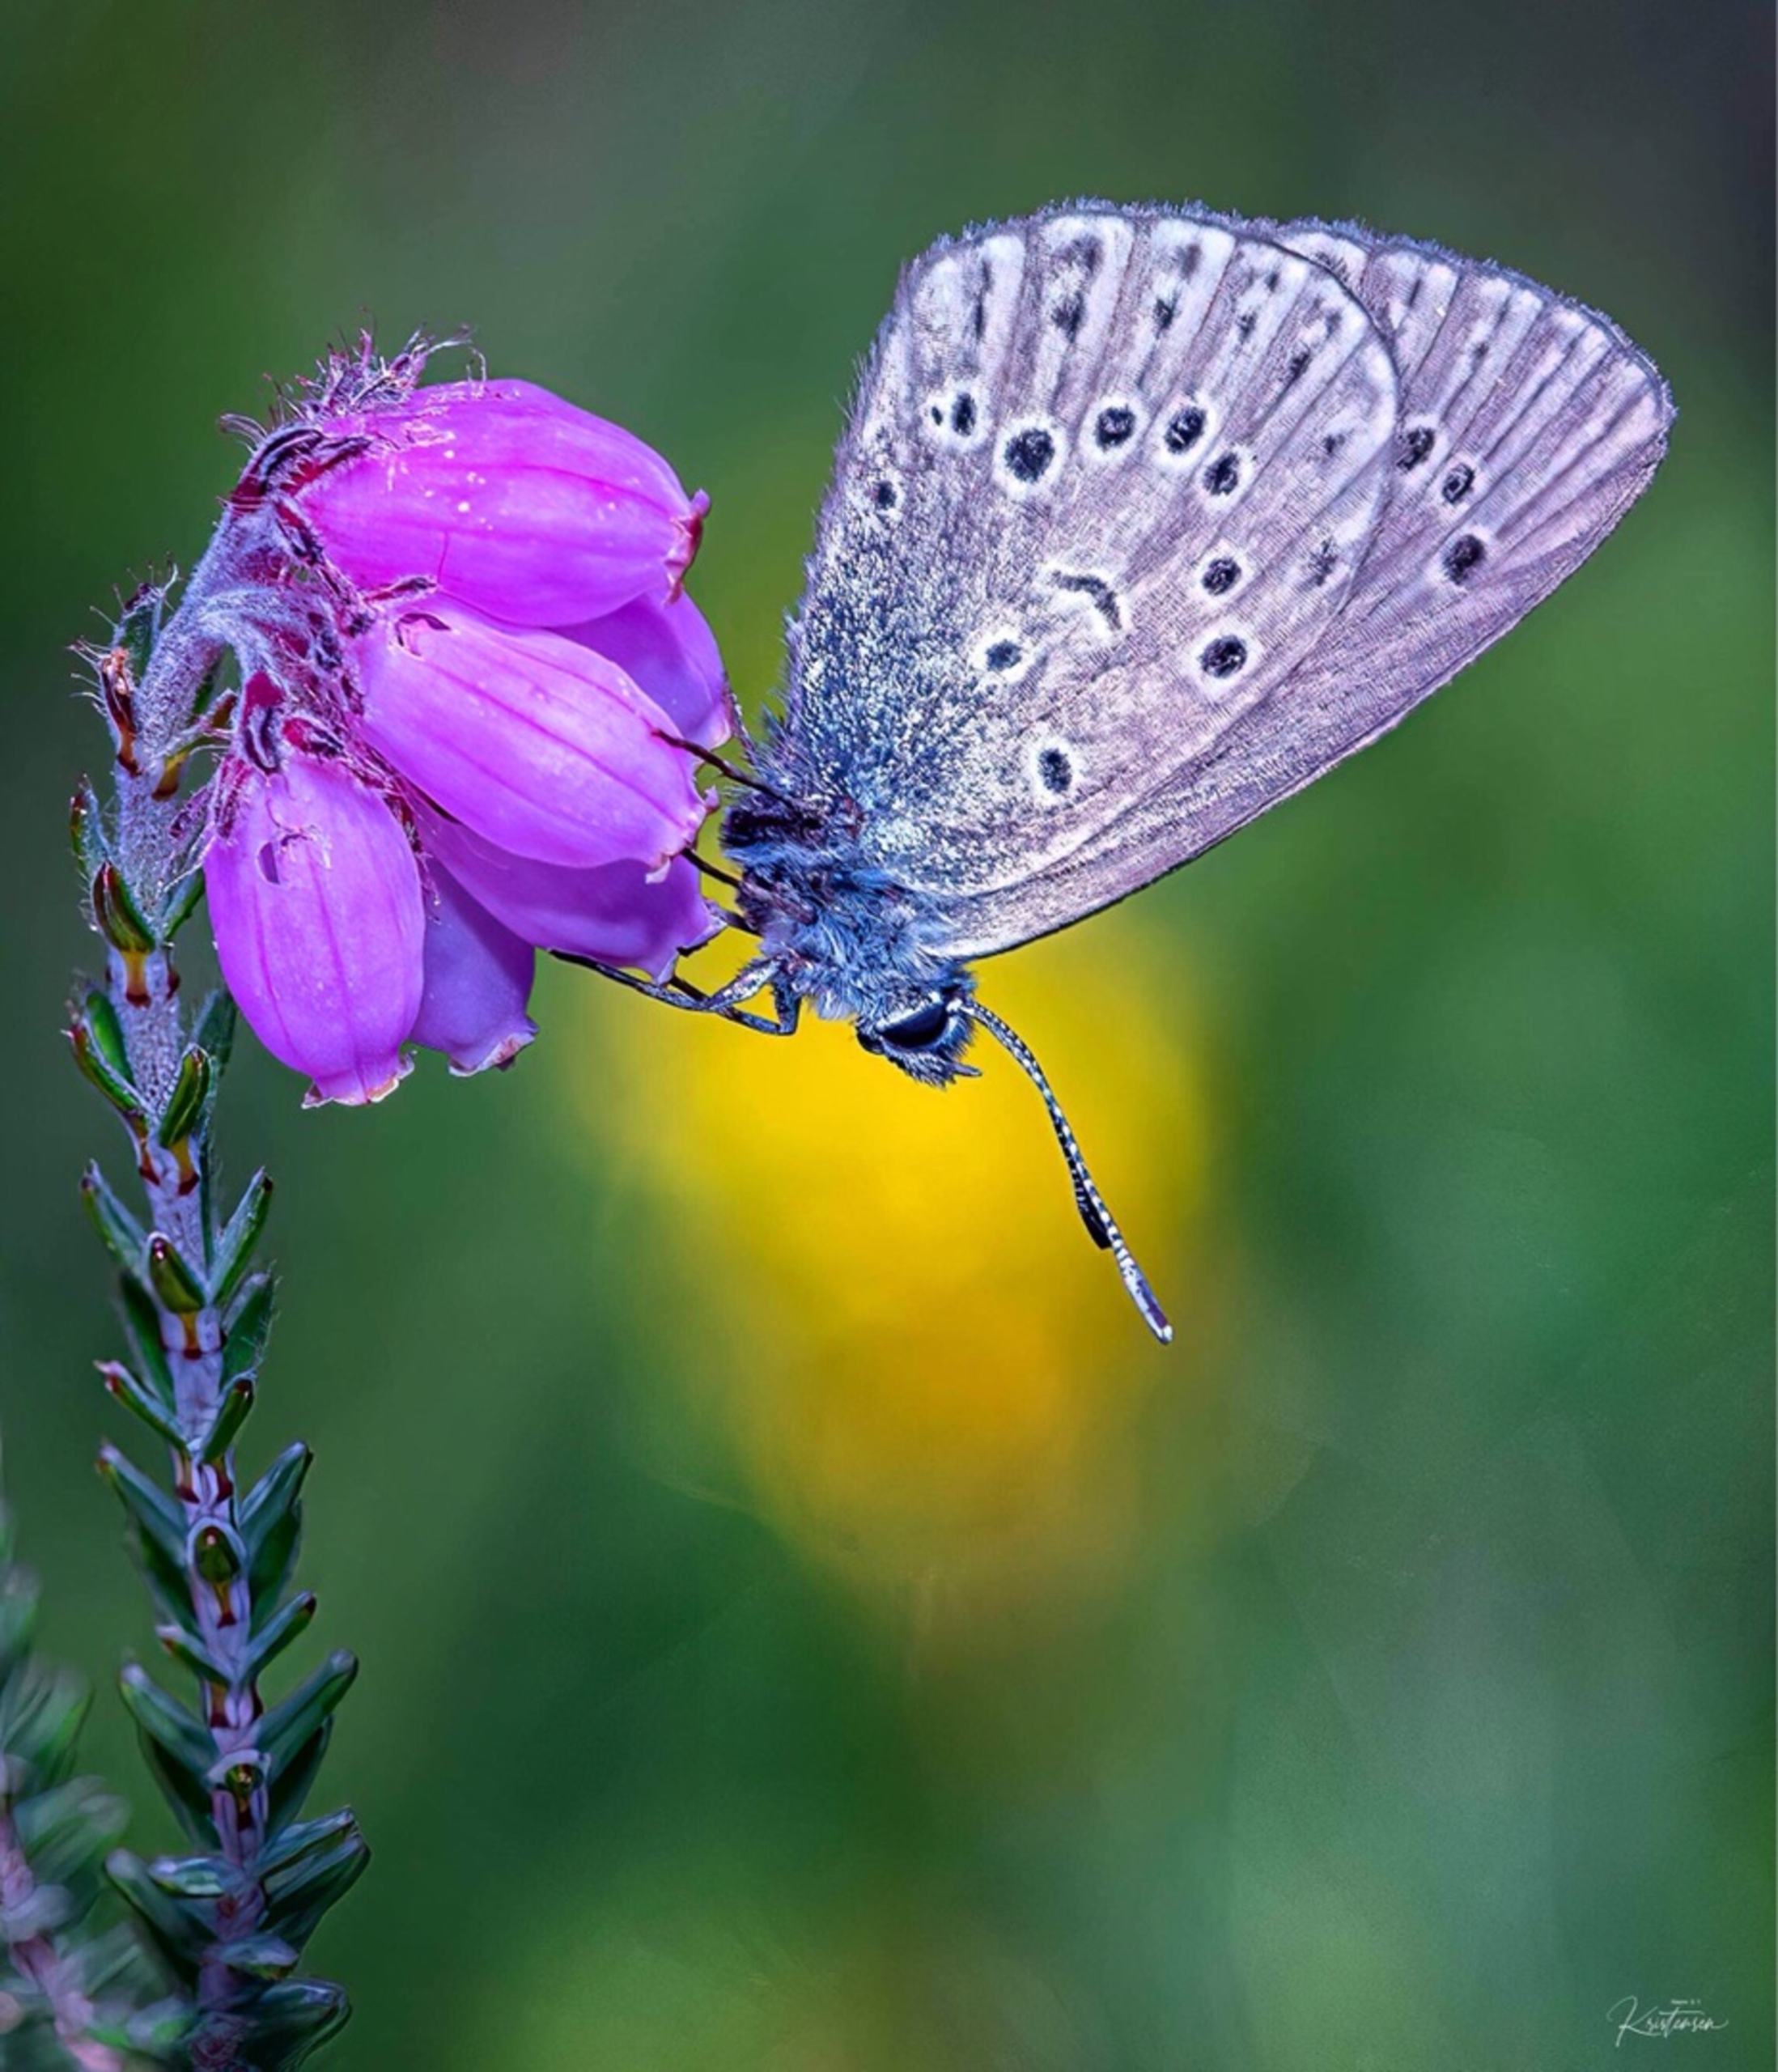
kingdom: Animalia
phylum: Arthropoda
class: Insecta
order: Lepidoptera
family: Lycaenidae
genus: Maculinea
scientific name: Maculinea alcon
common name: Ensianblåfugl
